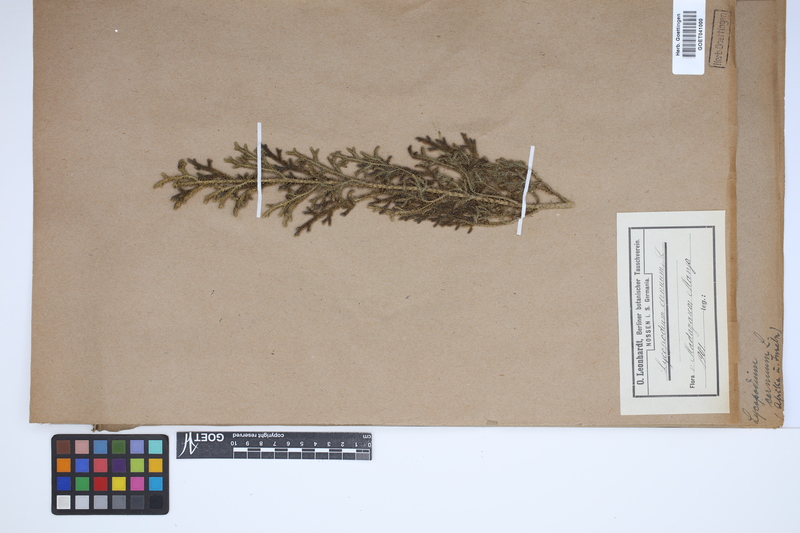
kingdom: Plantae
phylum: Tracheophyta
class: Lycopodiopsida
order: Lycopodiales
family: Lycopodiaceae
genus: Palhinhaea
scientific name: Palhinhaea cernua
